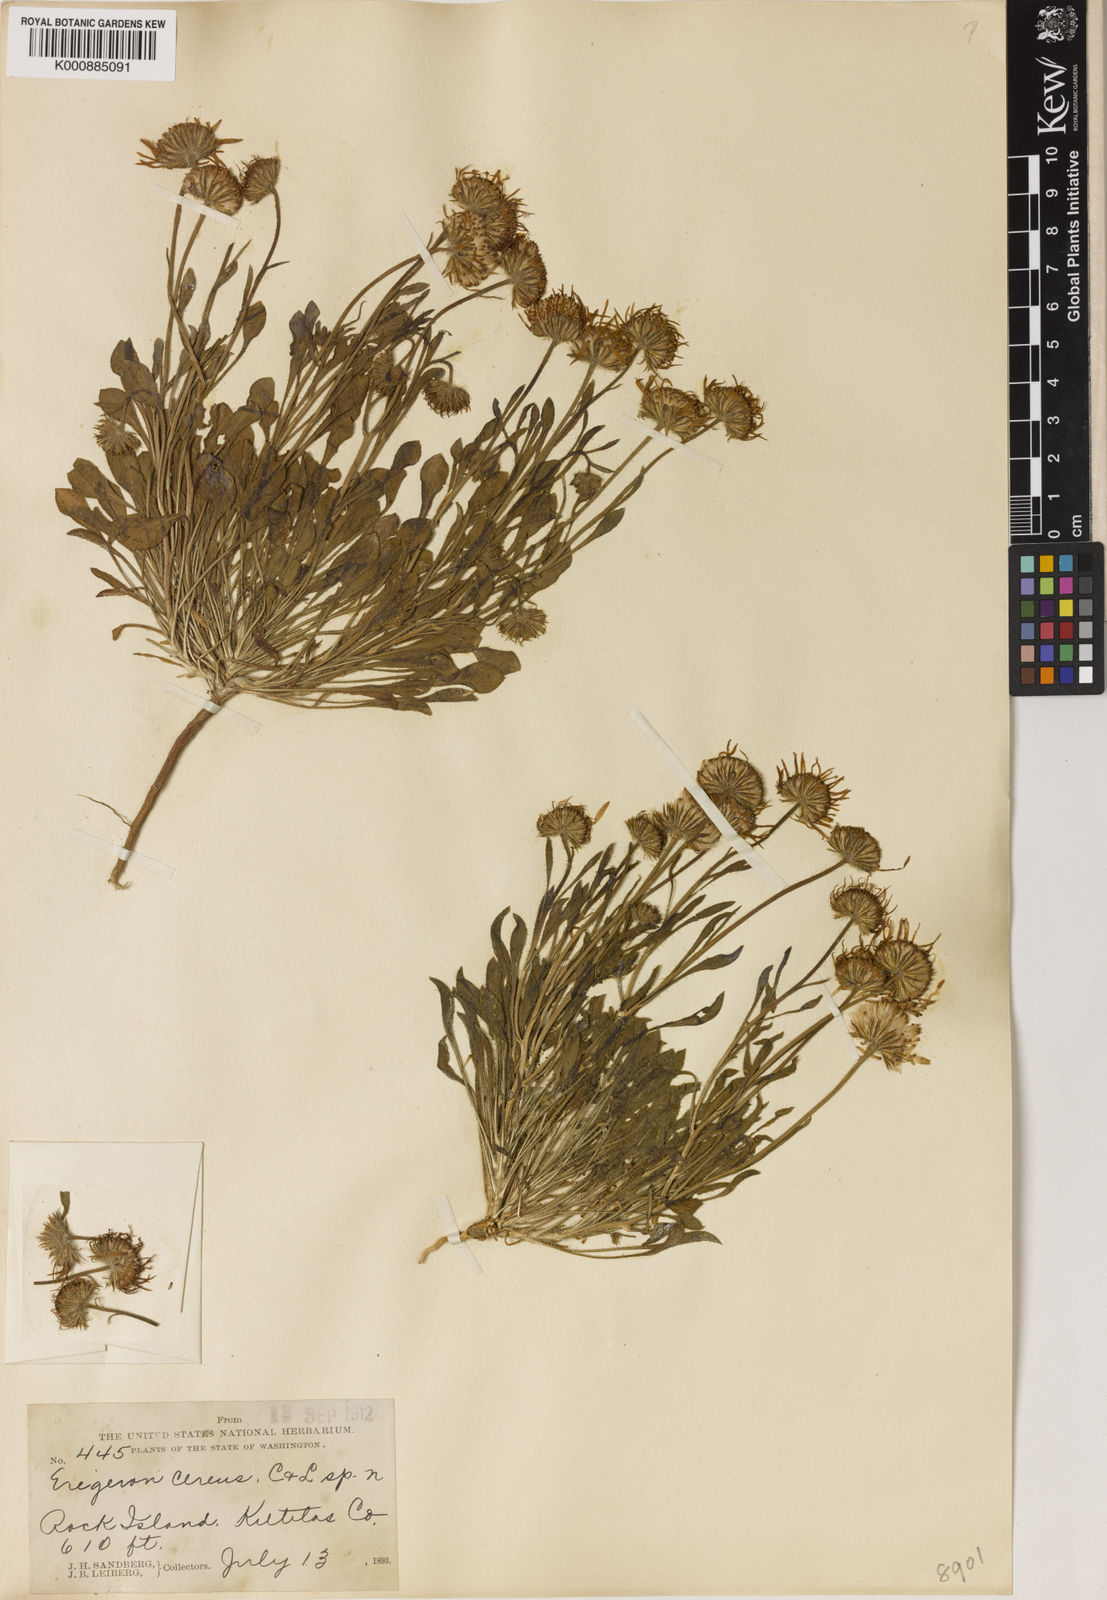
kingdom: Plantae
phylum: Tracheophyta
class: Magnoliopsida
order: Asterales
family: Asteraceae
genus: Erigeron
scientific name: Erigeron
